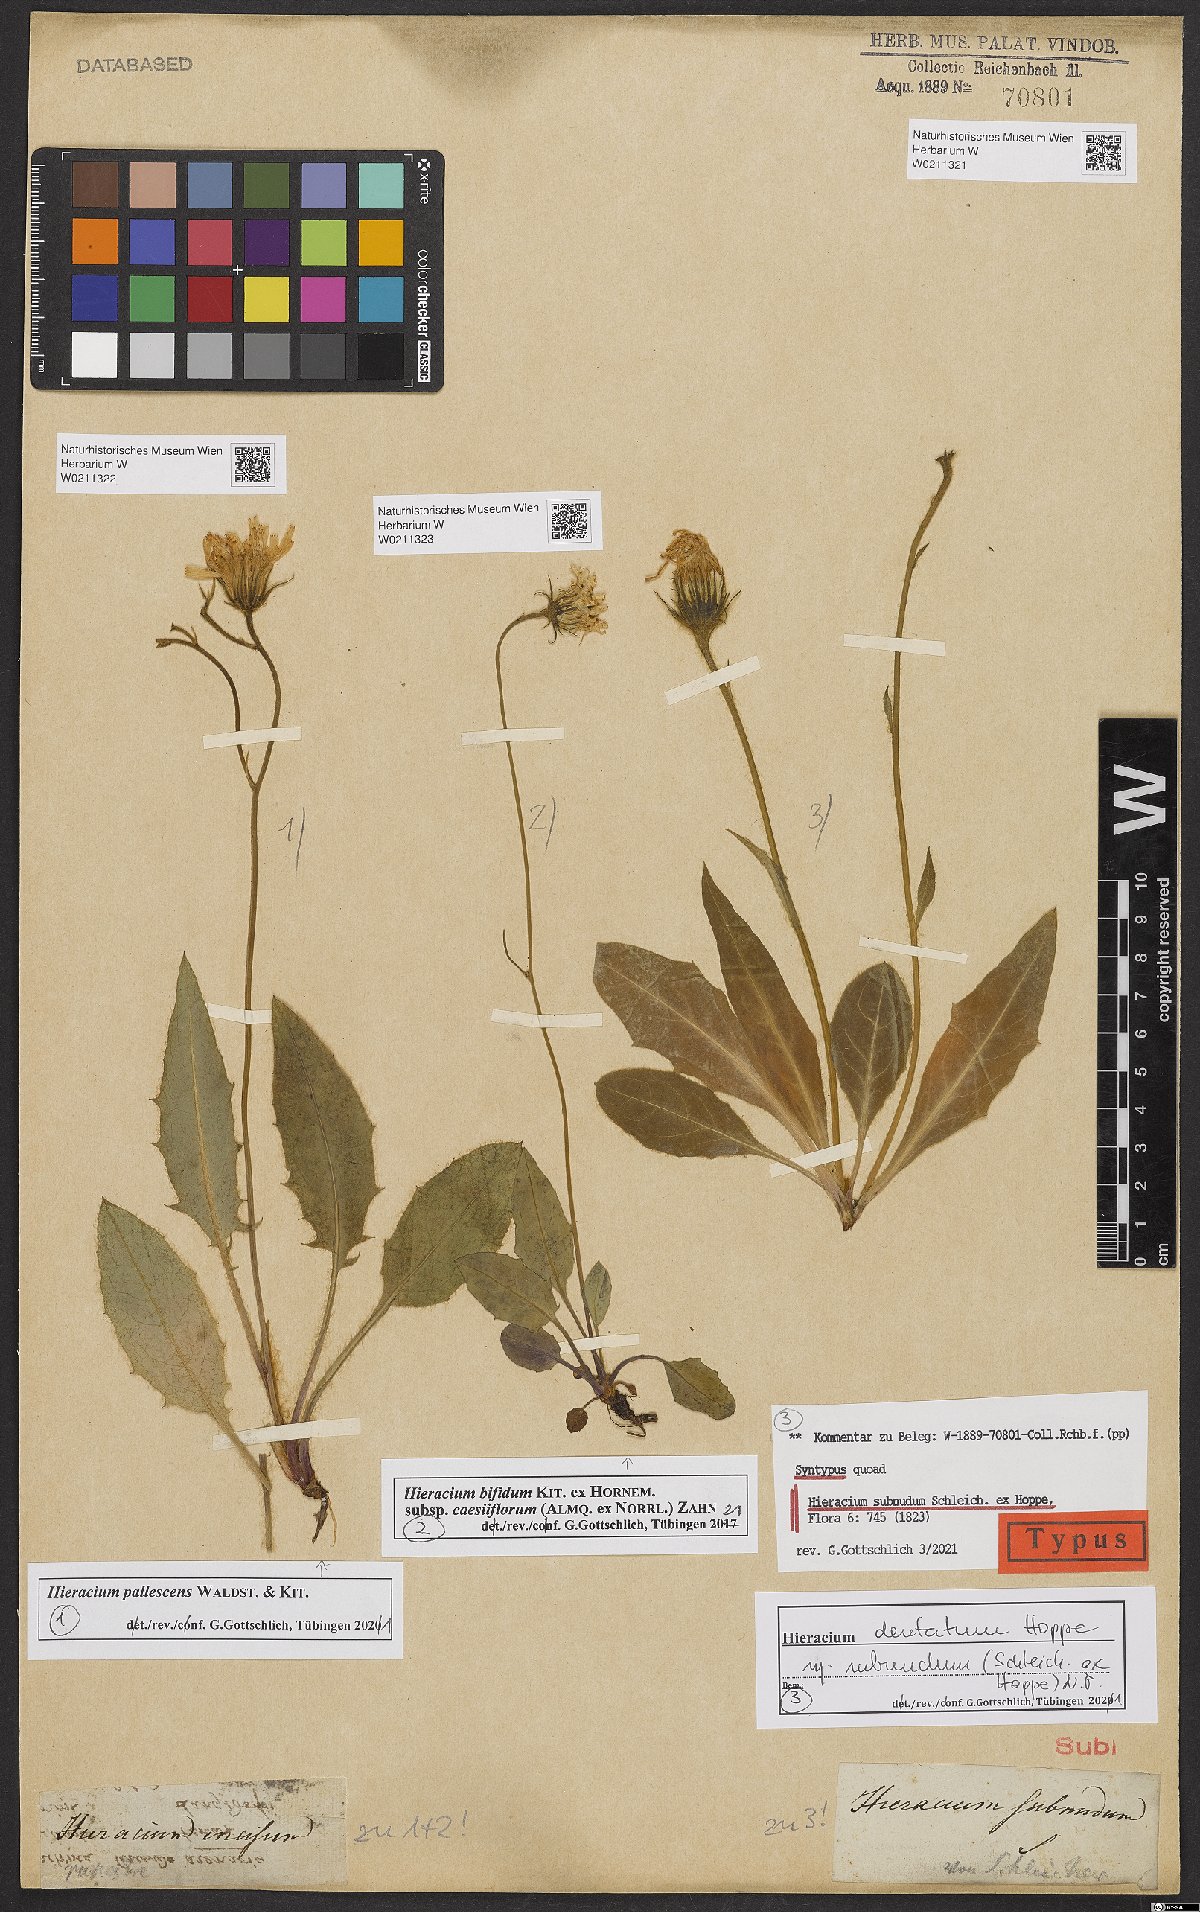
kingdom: Plantae
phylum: Tracheophyta
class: Magnoliopsida
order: Asterales
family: Asteraceae
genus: Hieracium
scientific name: Hieracium bifidum
